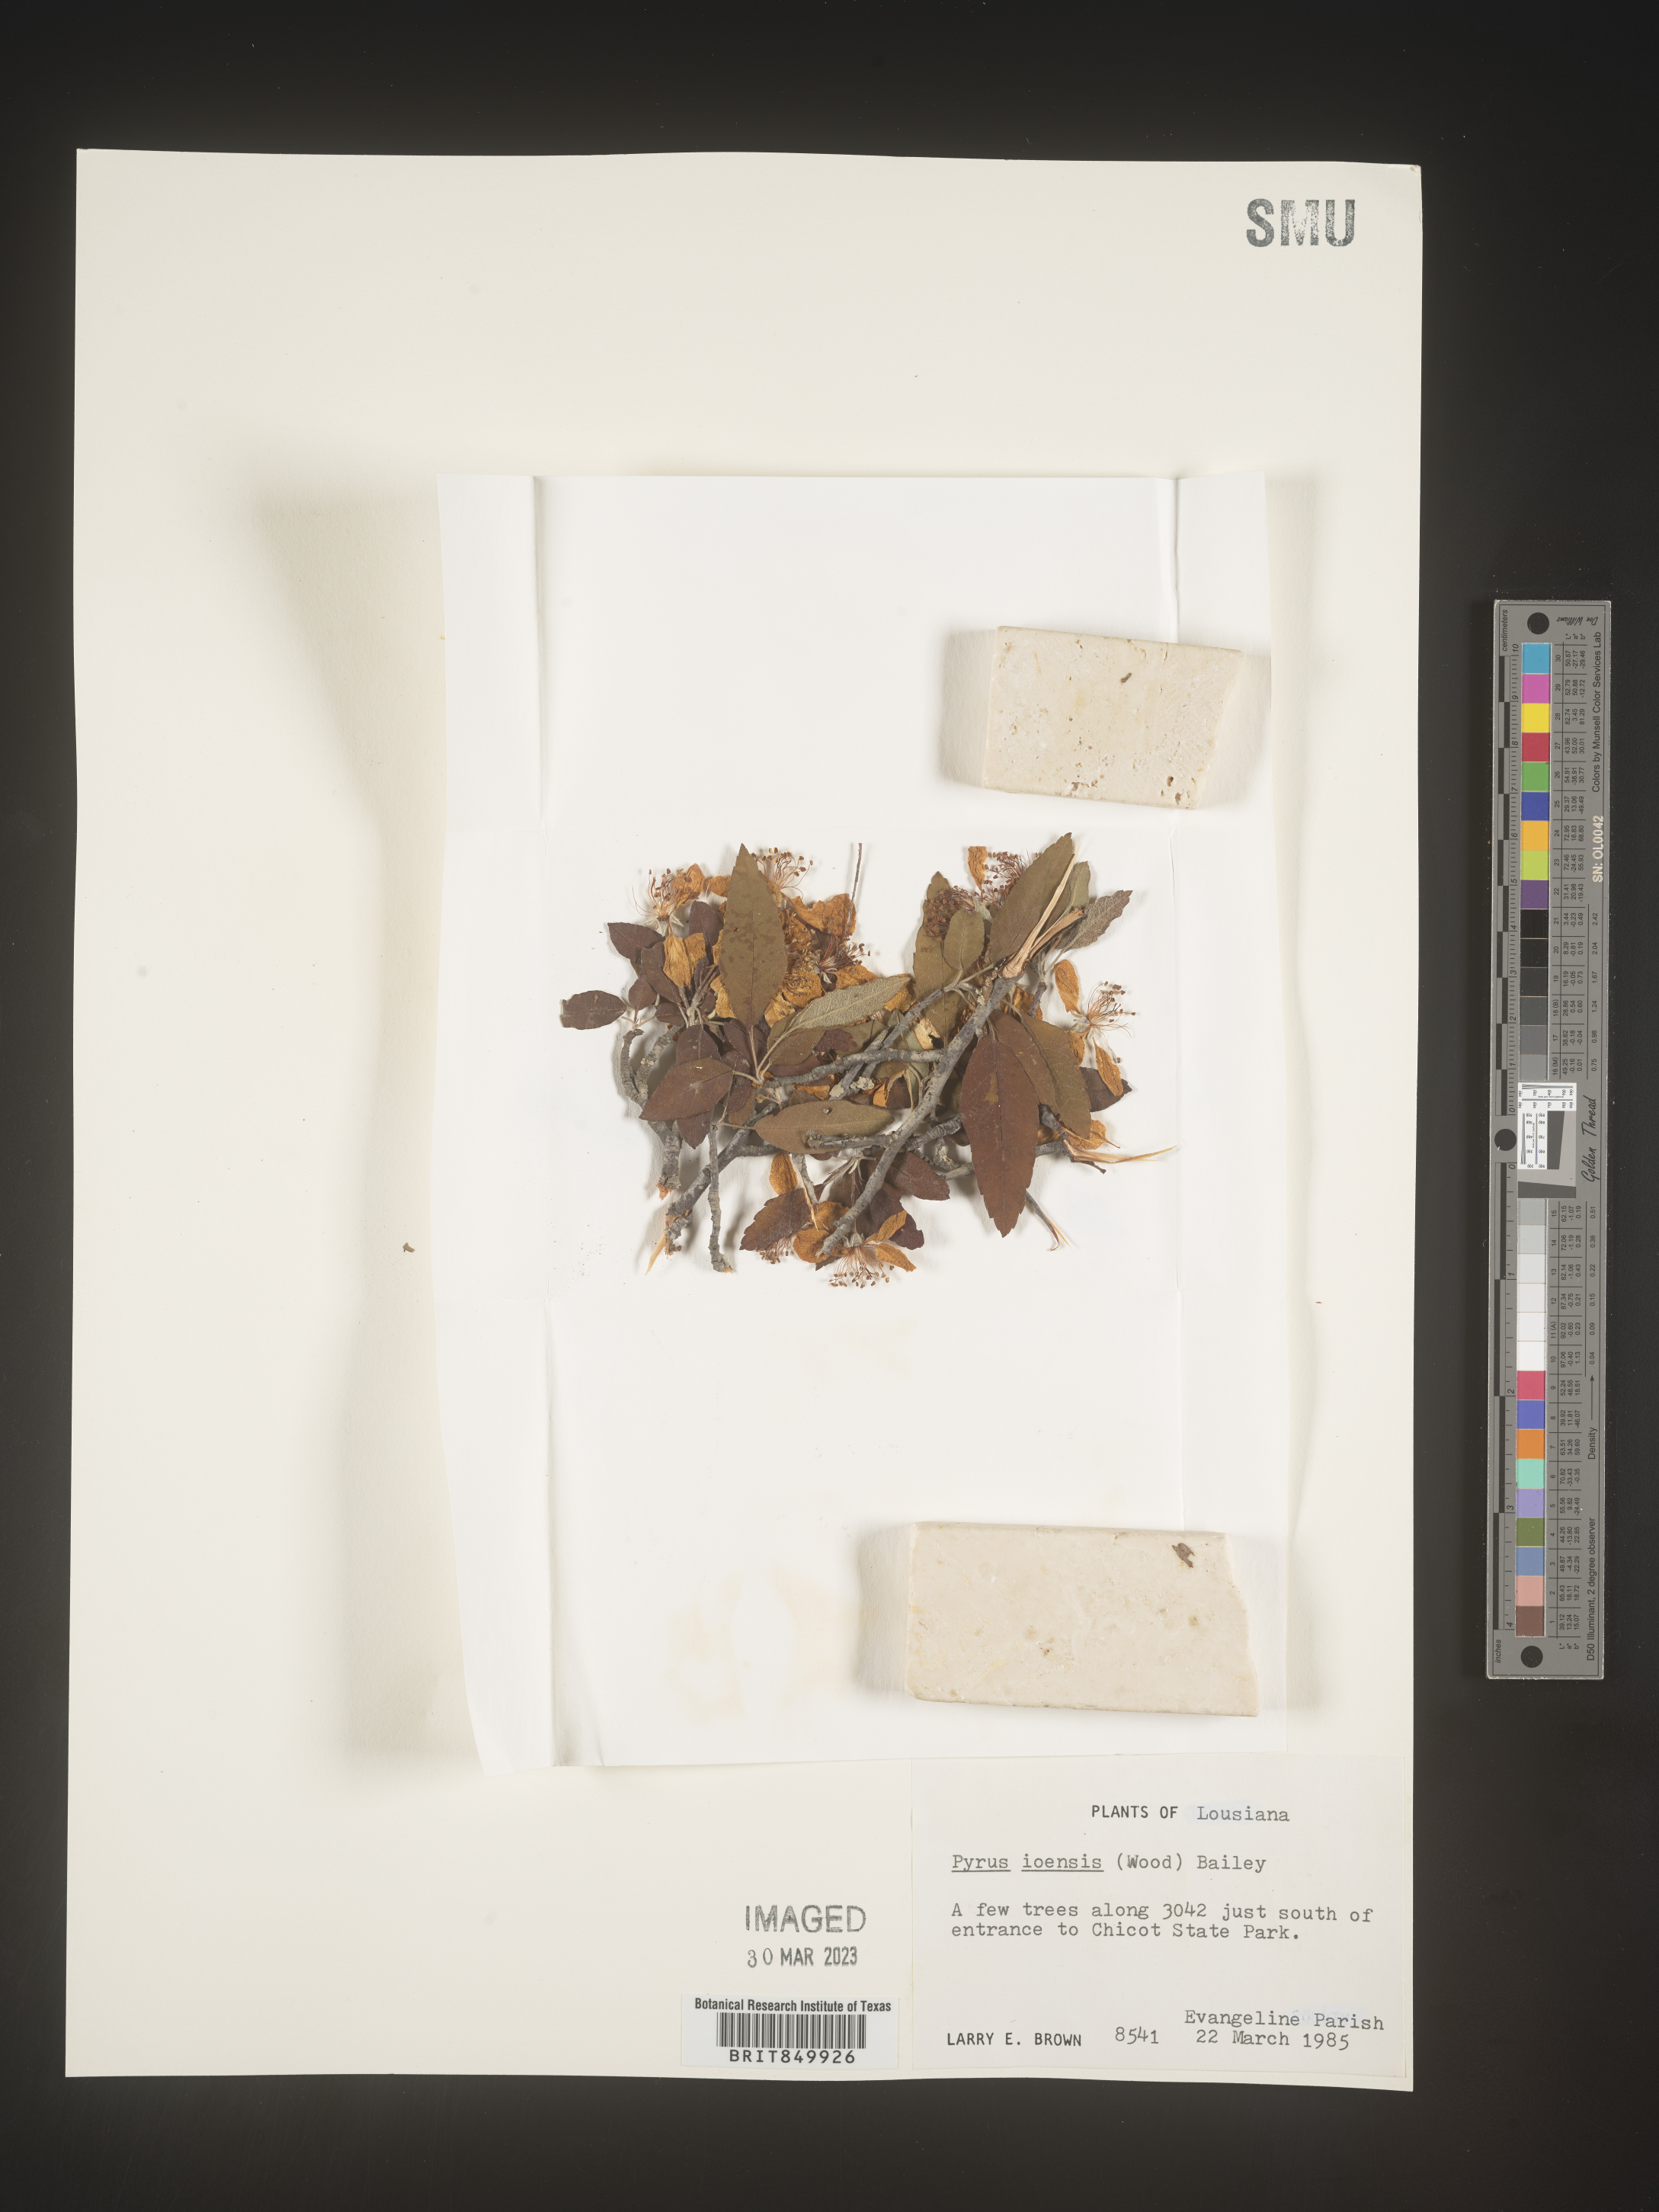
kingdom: Plantae
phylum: Tracheophyta
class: Magnoliopsida
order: Rosales
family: Rosaceae
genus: Pyrus
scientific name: Pyrus
